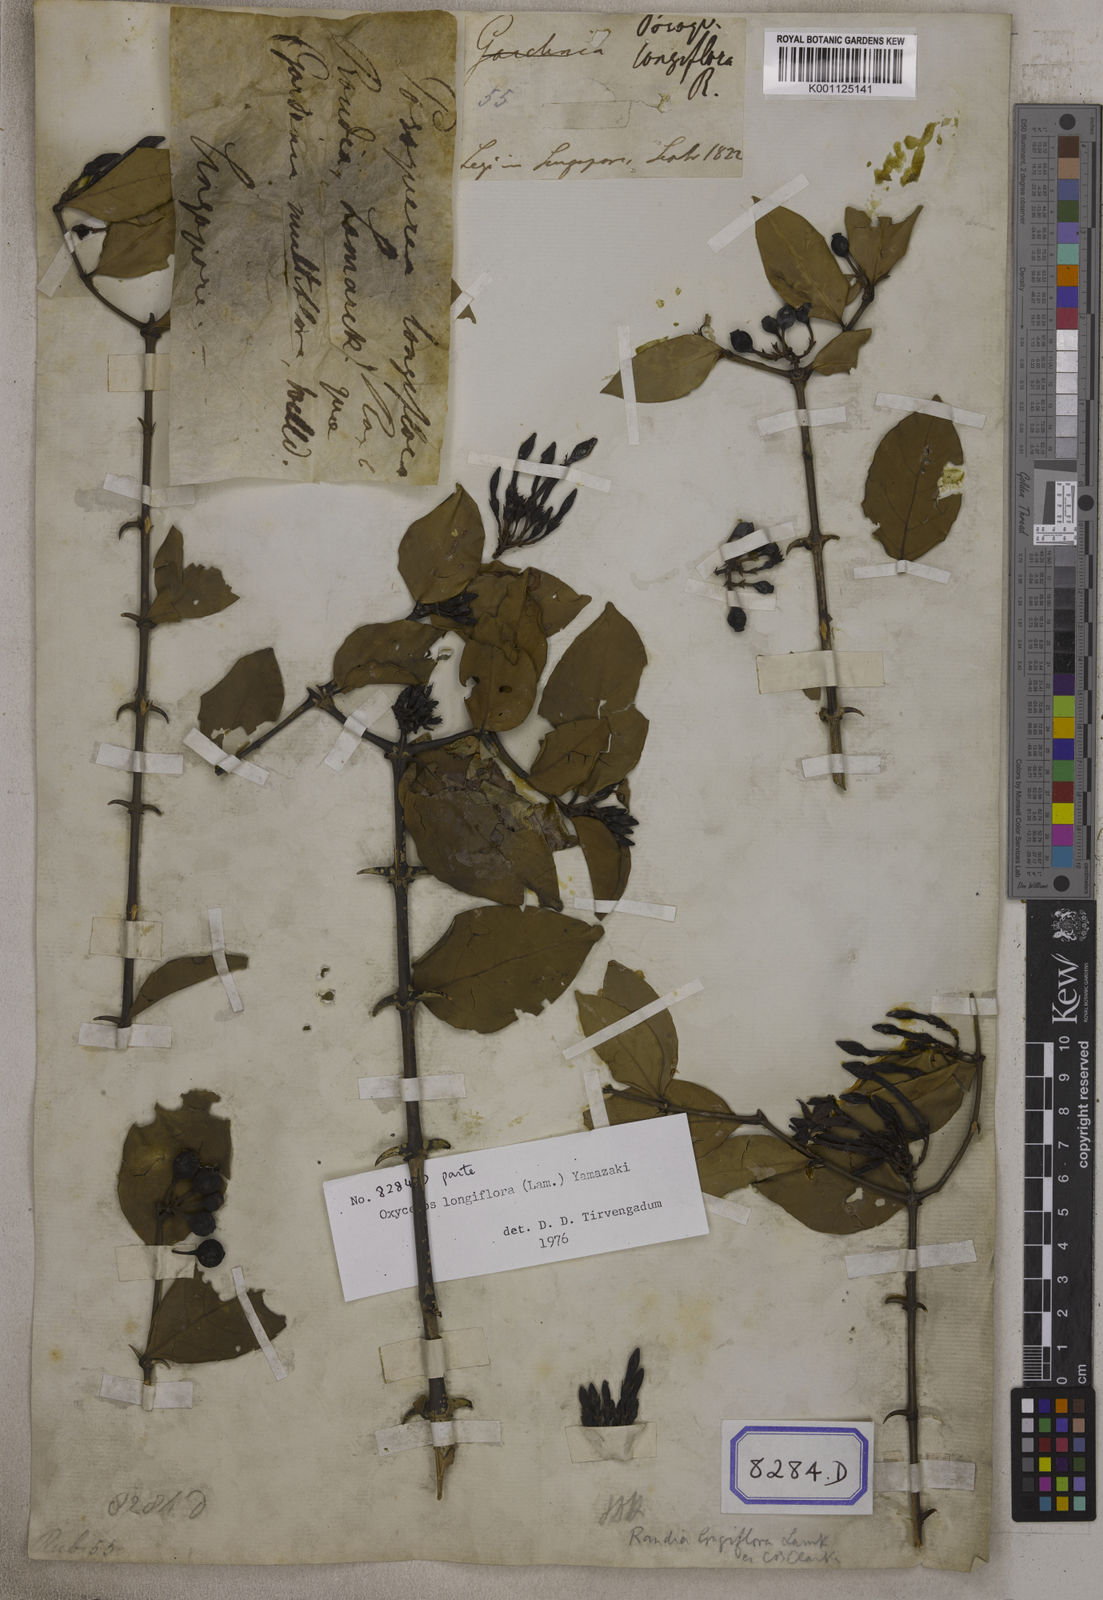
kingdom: Plantae
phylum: Tracheophyta
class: Magnoliopsida
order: Gentianales
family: Rubiaceae
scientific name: Rubiaceae
